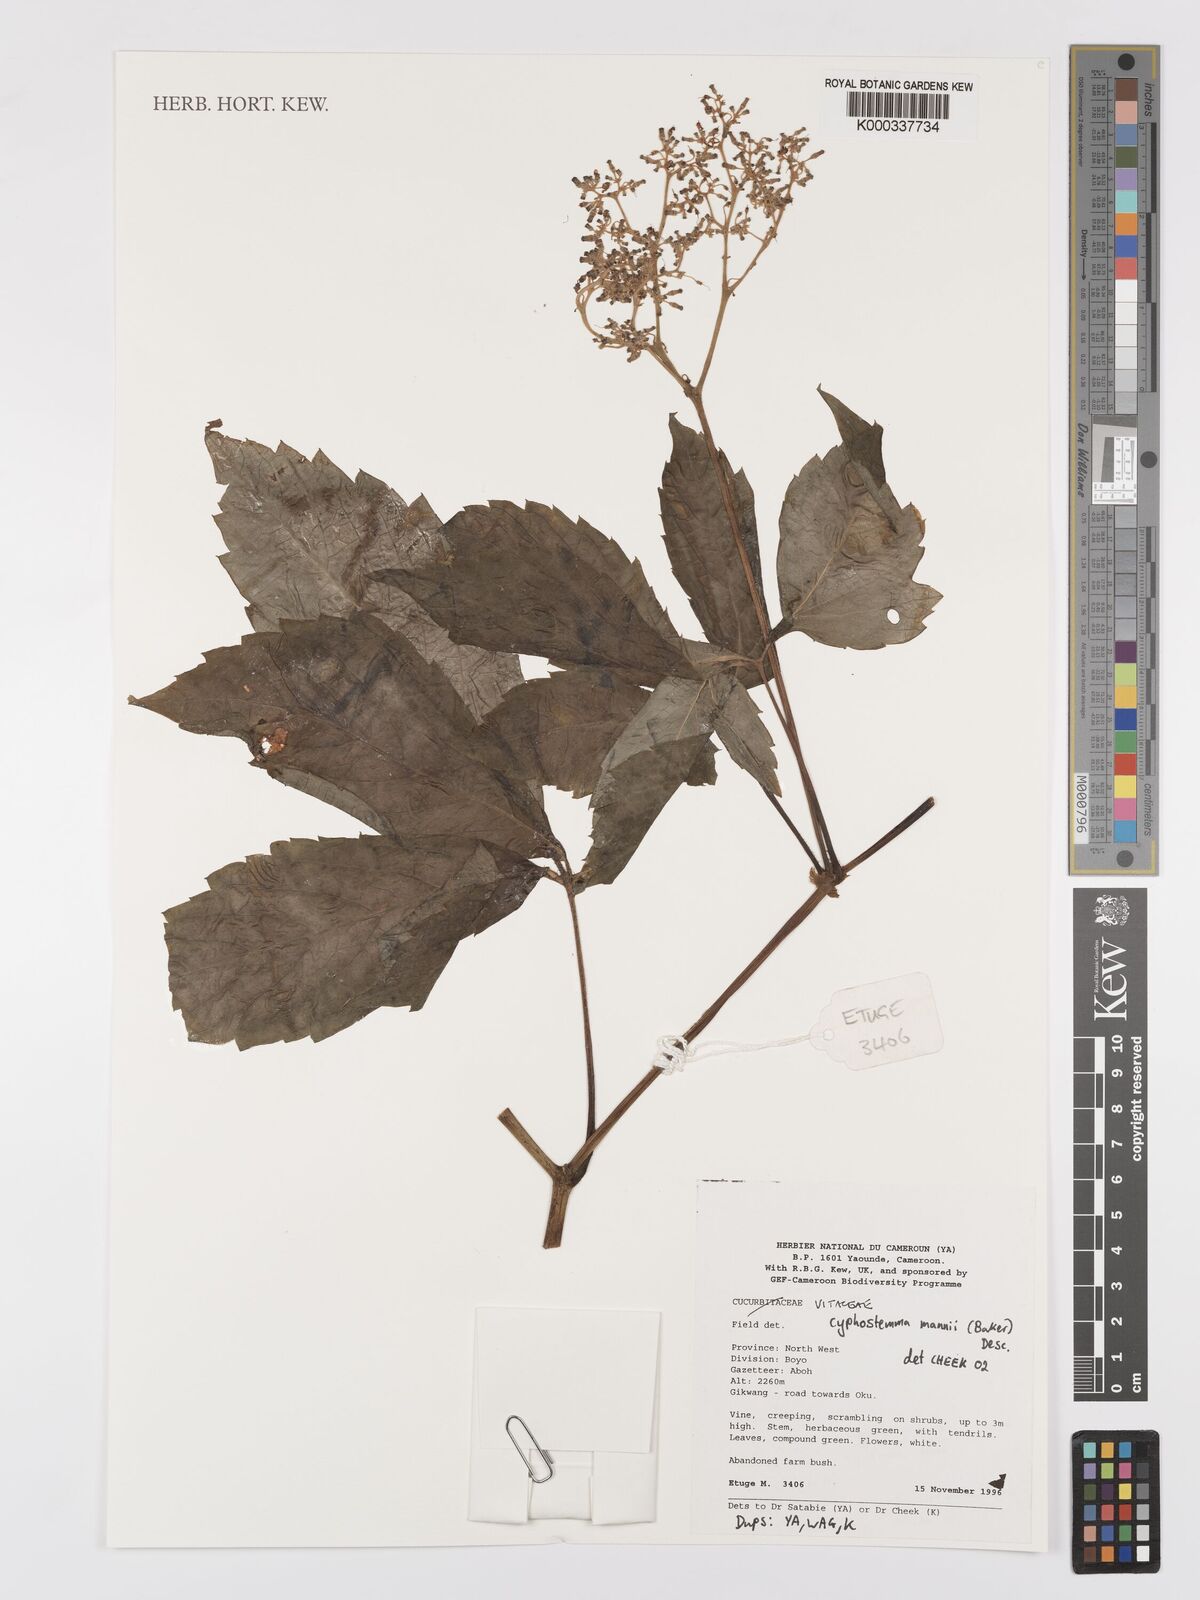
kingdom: Plantae
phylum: Tracheophyta
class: Magnoliopsida
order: Vitales
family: Vitaceae
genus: Cyphostemma
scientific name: Cyphostemma mannii
